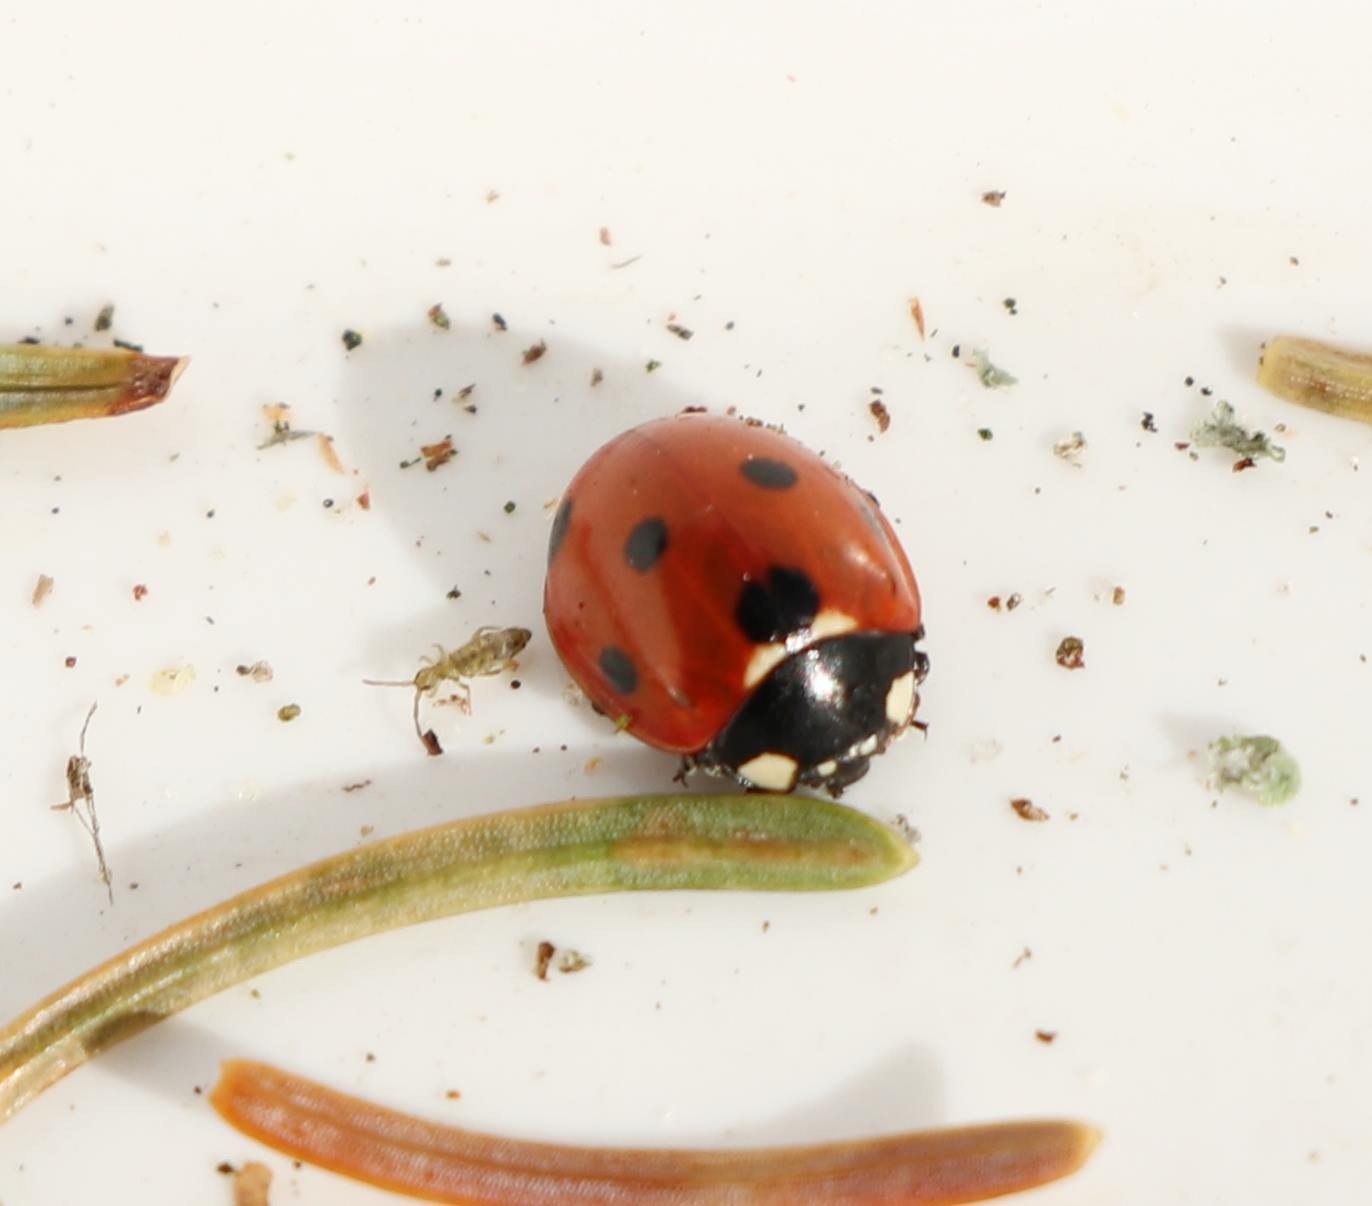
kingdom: Animalia
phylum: Arthropoda
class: Insecta
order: Coleoptera
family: Coccinellidae
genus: Coccinella
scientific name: Coccinella septempunctata
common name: Syvplettet mariehøne
